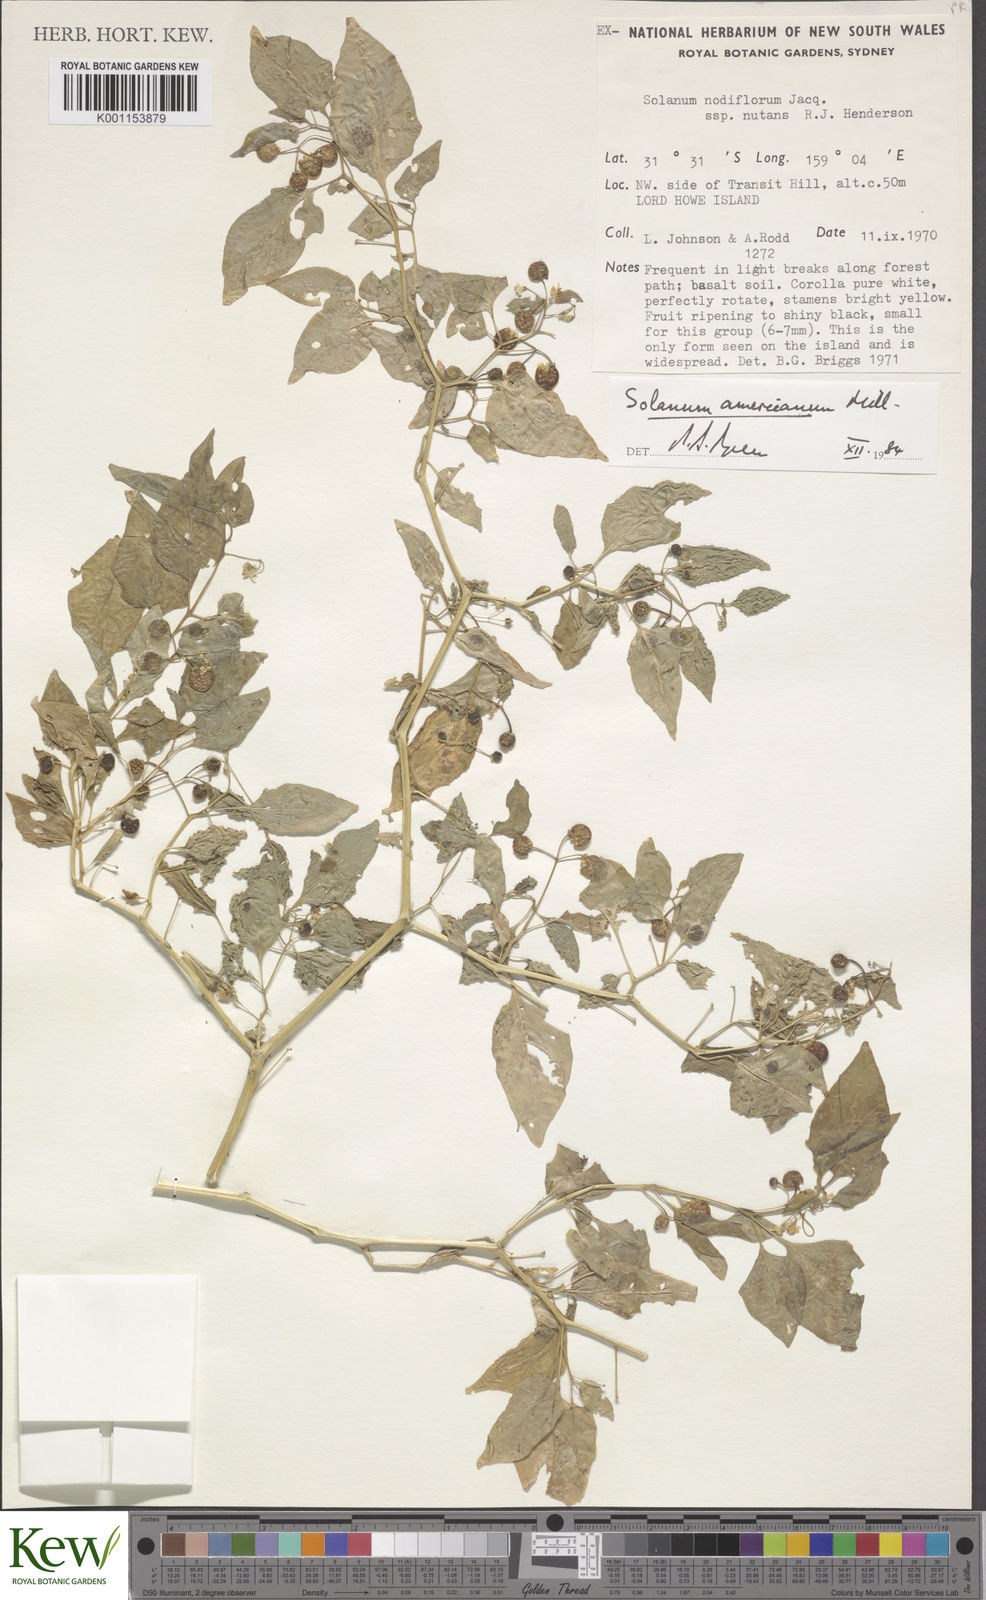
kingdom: Plantae
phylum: Tracheophyta
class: Magnoliopsida
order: Solanales
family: Solanaceae
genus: Solanum
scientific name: Solanum americanum
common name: American black nightshade
